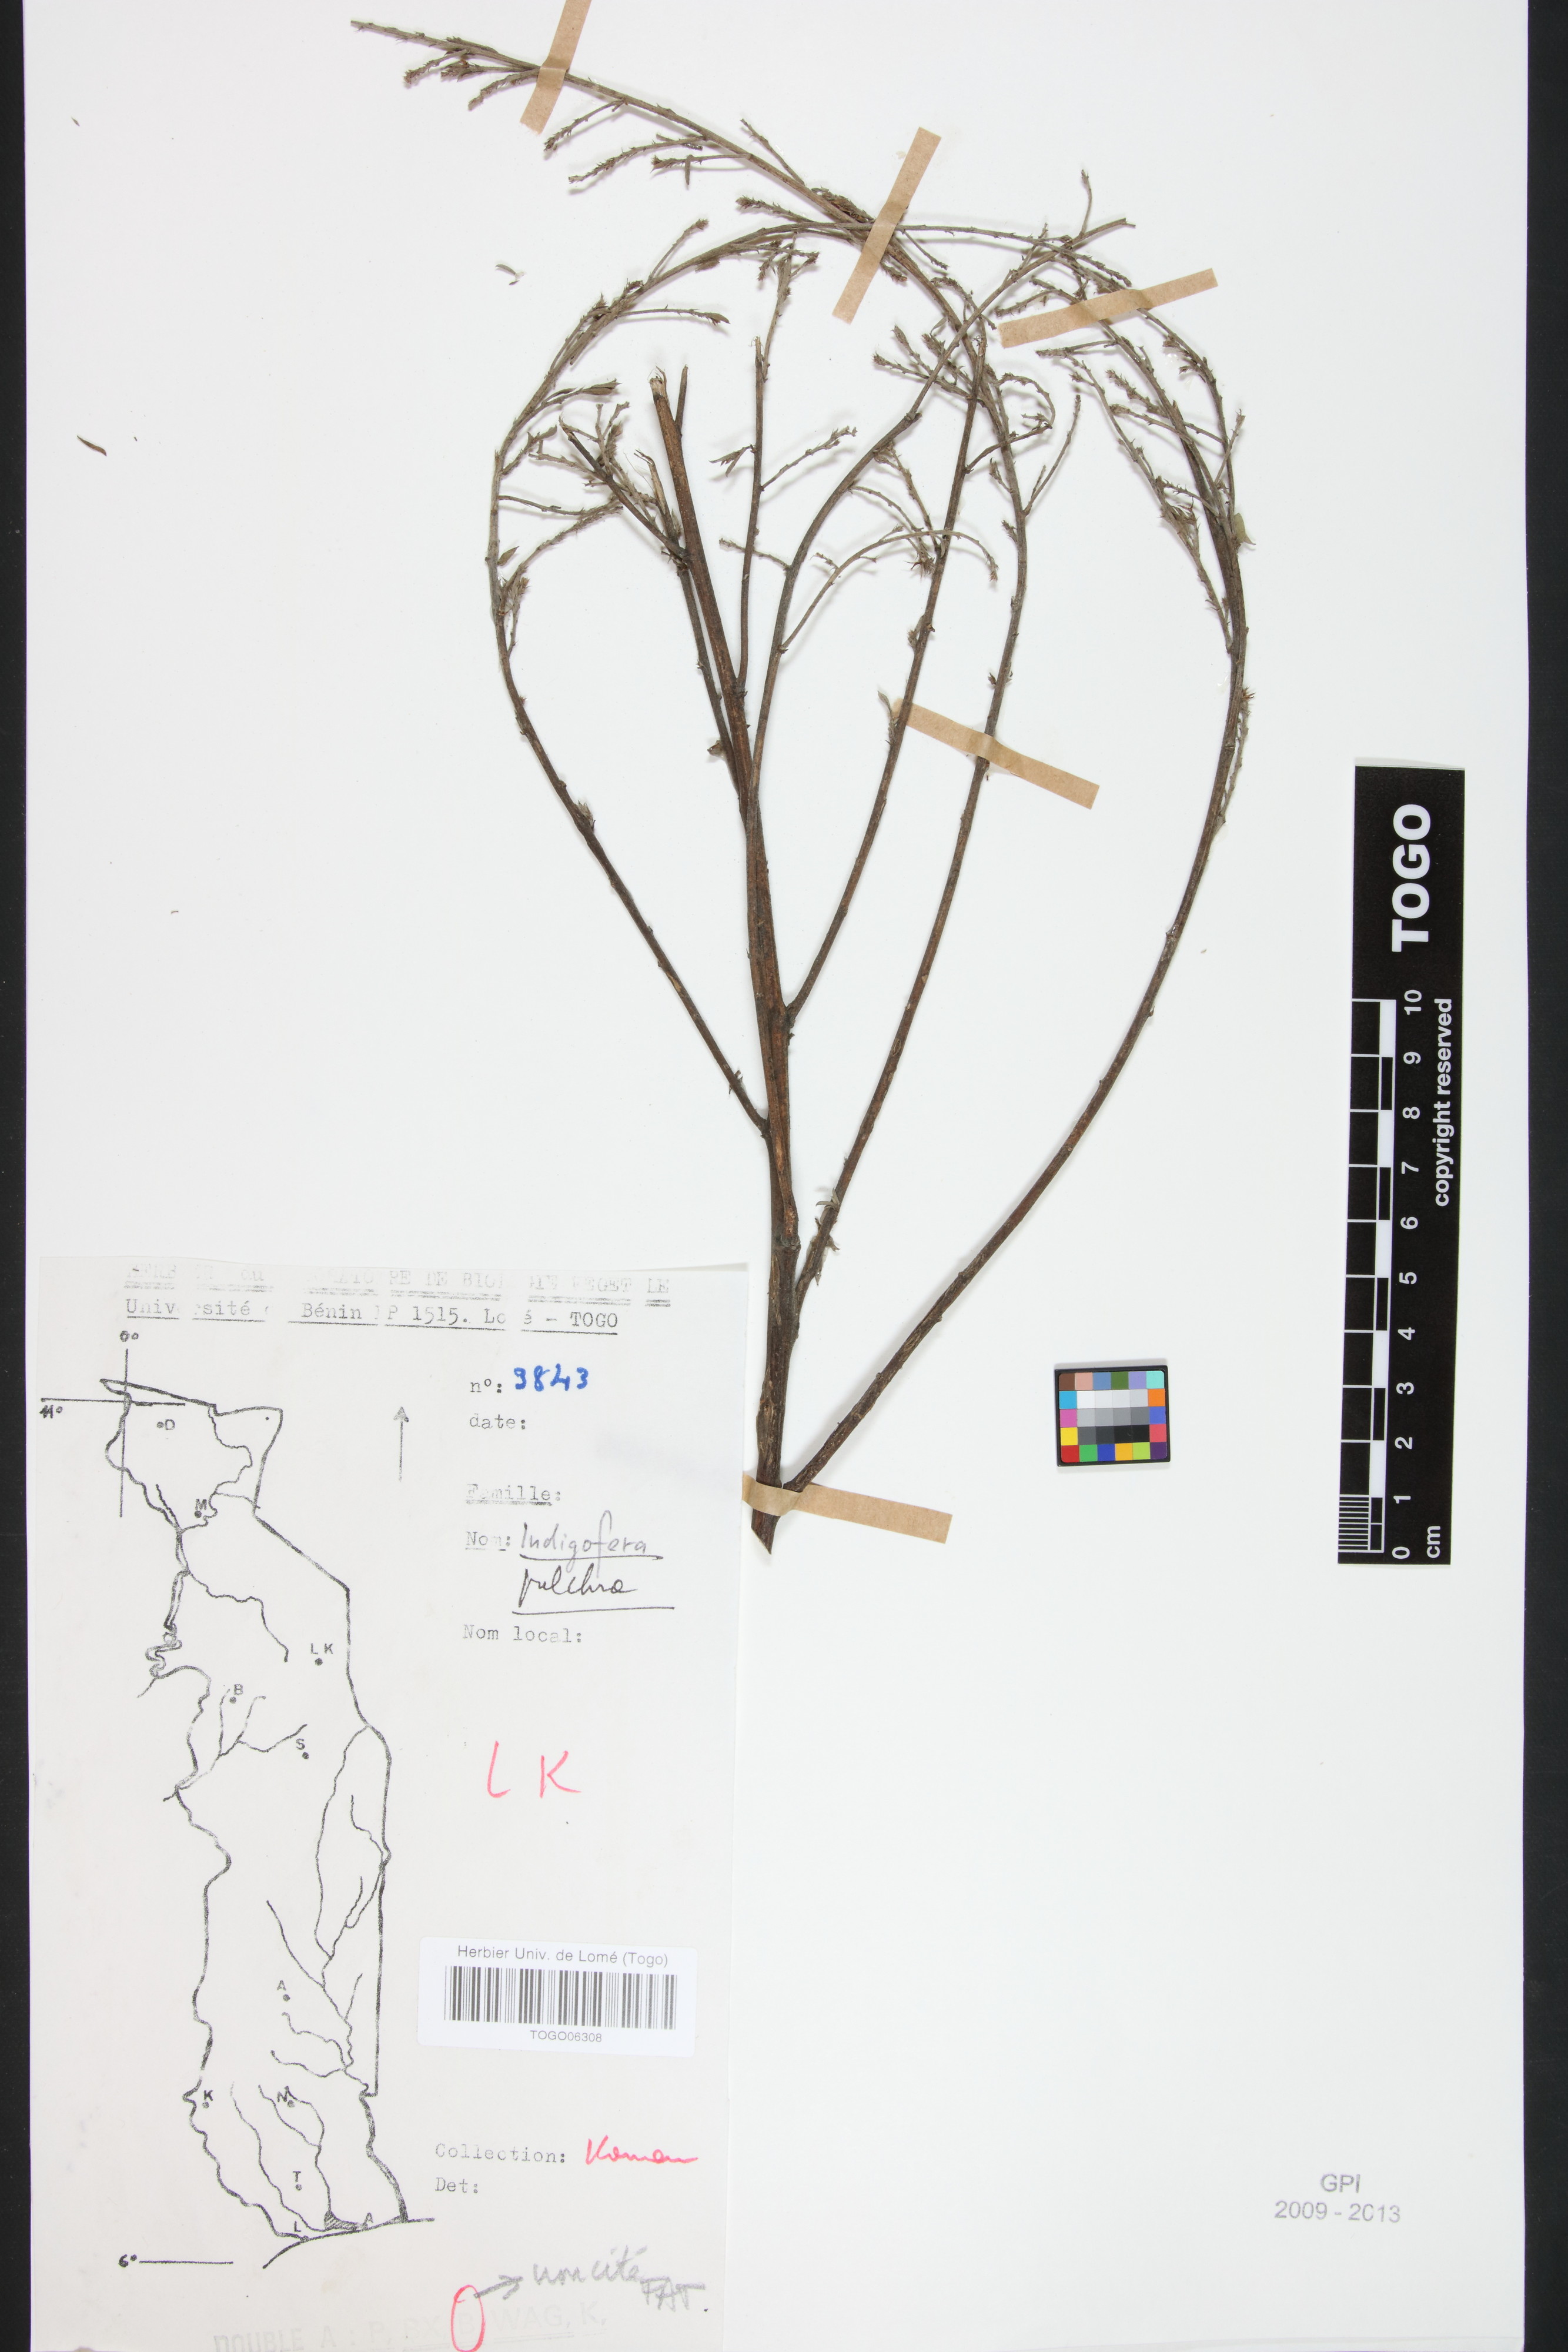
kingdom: Plantae
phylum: Tracheophyta
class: Magnoliopsida
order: Fabales
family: Fabaceae
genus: Indigofera
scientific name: Indigofera pulchra
